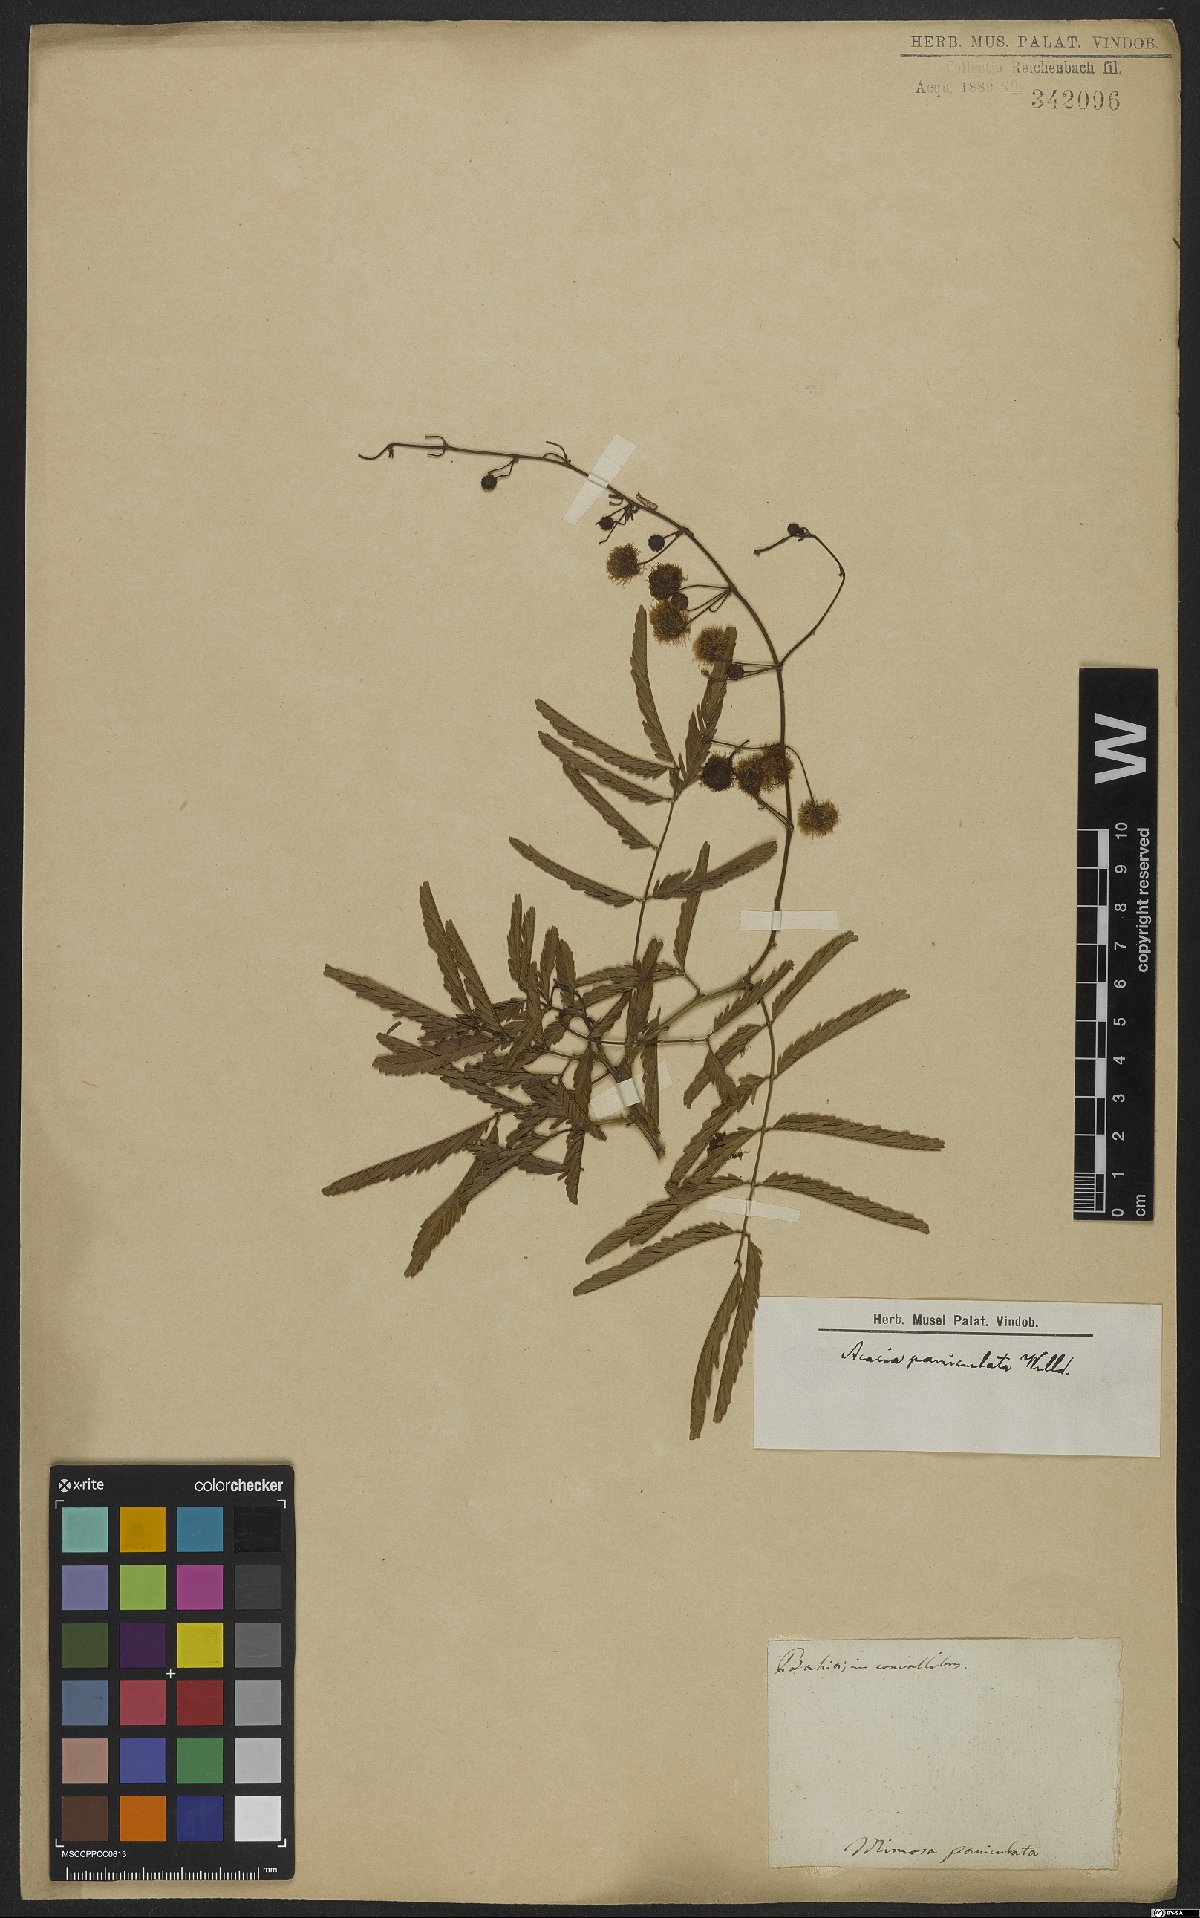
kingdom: Plantae
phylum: Tracheophyta
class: Magnoliopsida
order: Fabales
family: Fabaceae
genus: Senegalia
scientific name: Senegalia paniculata
